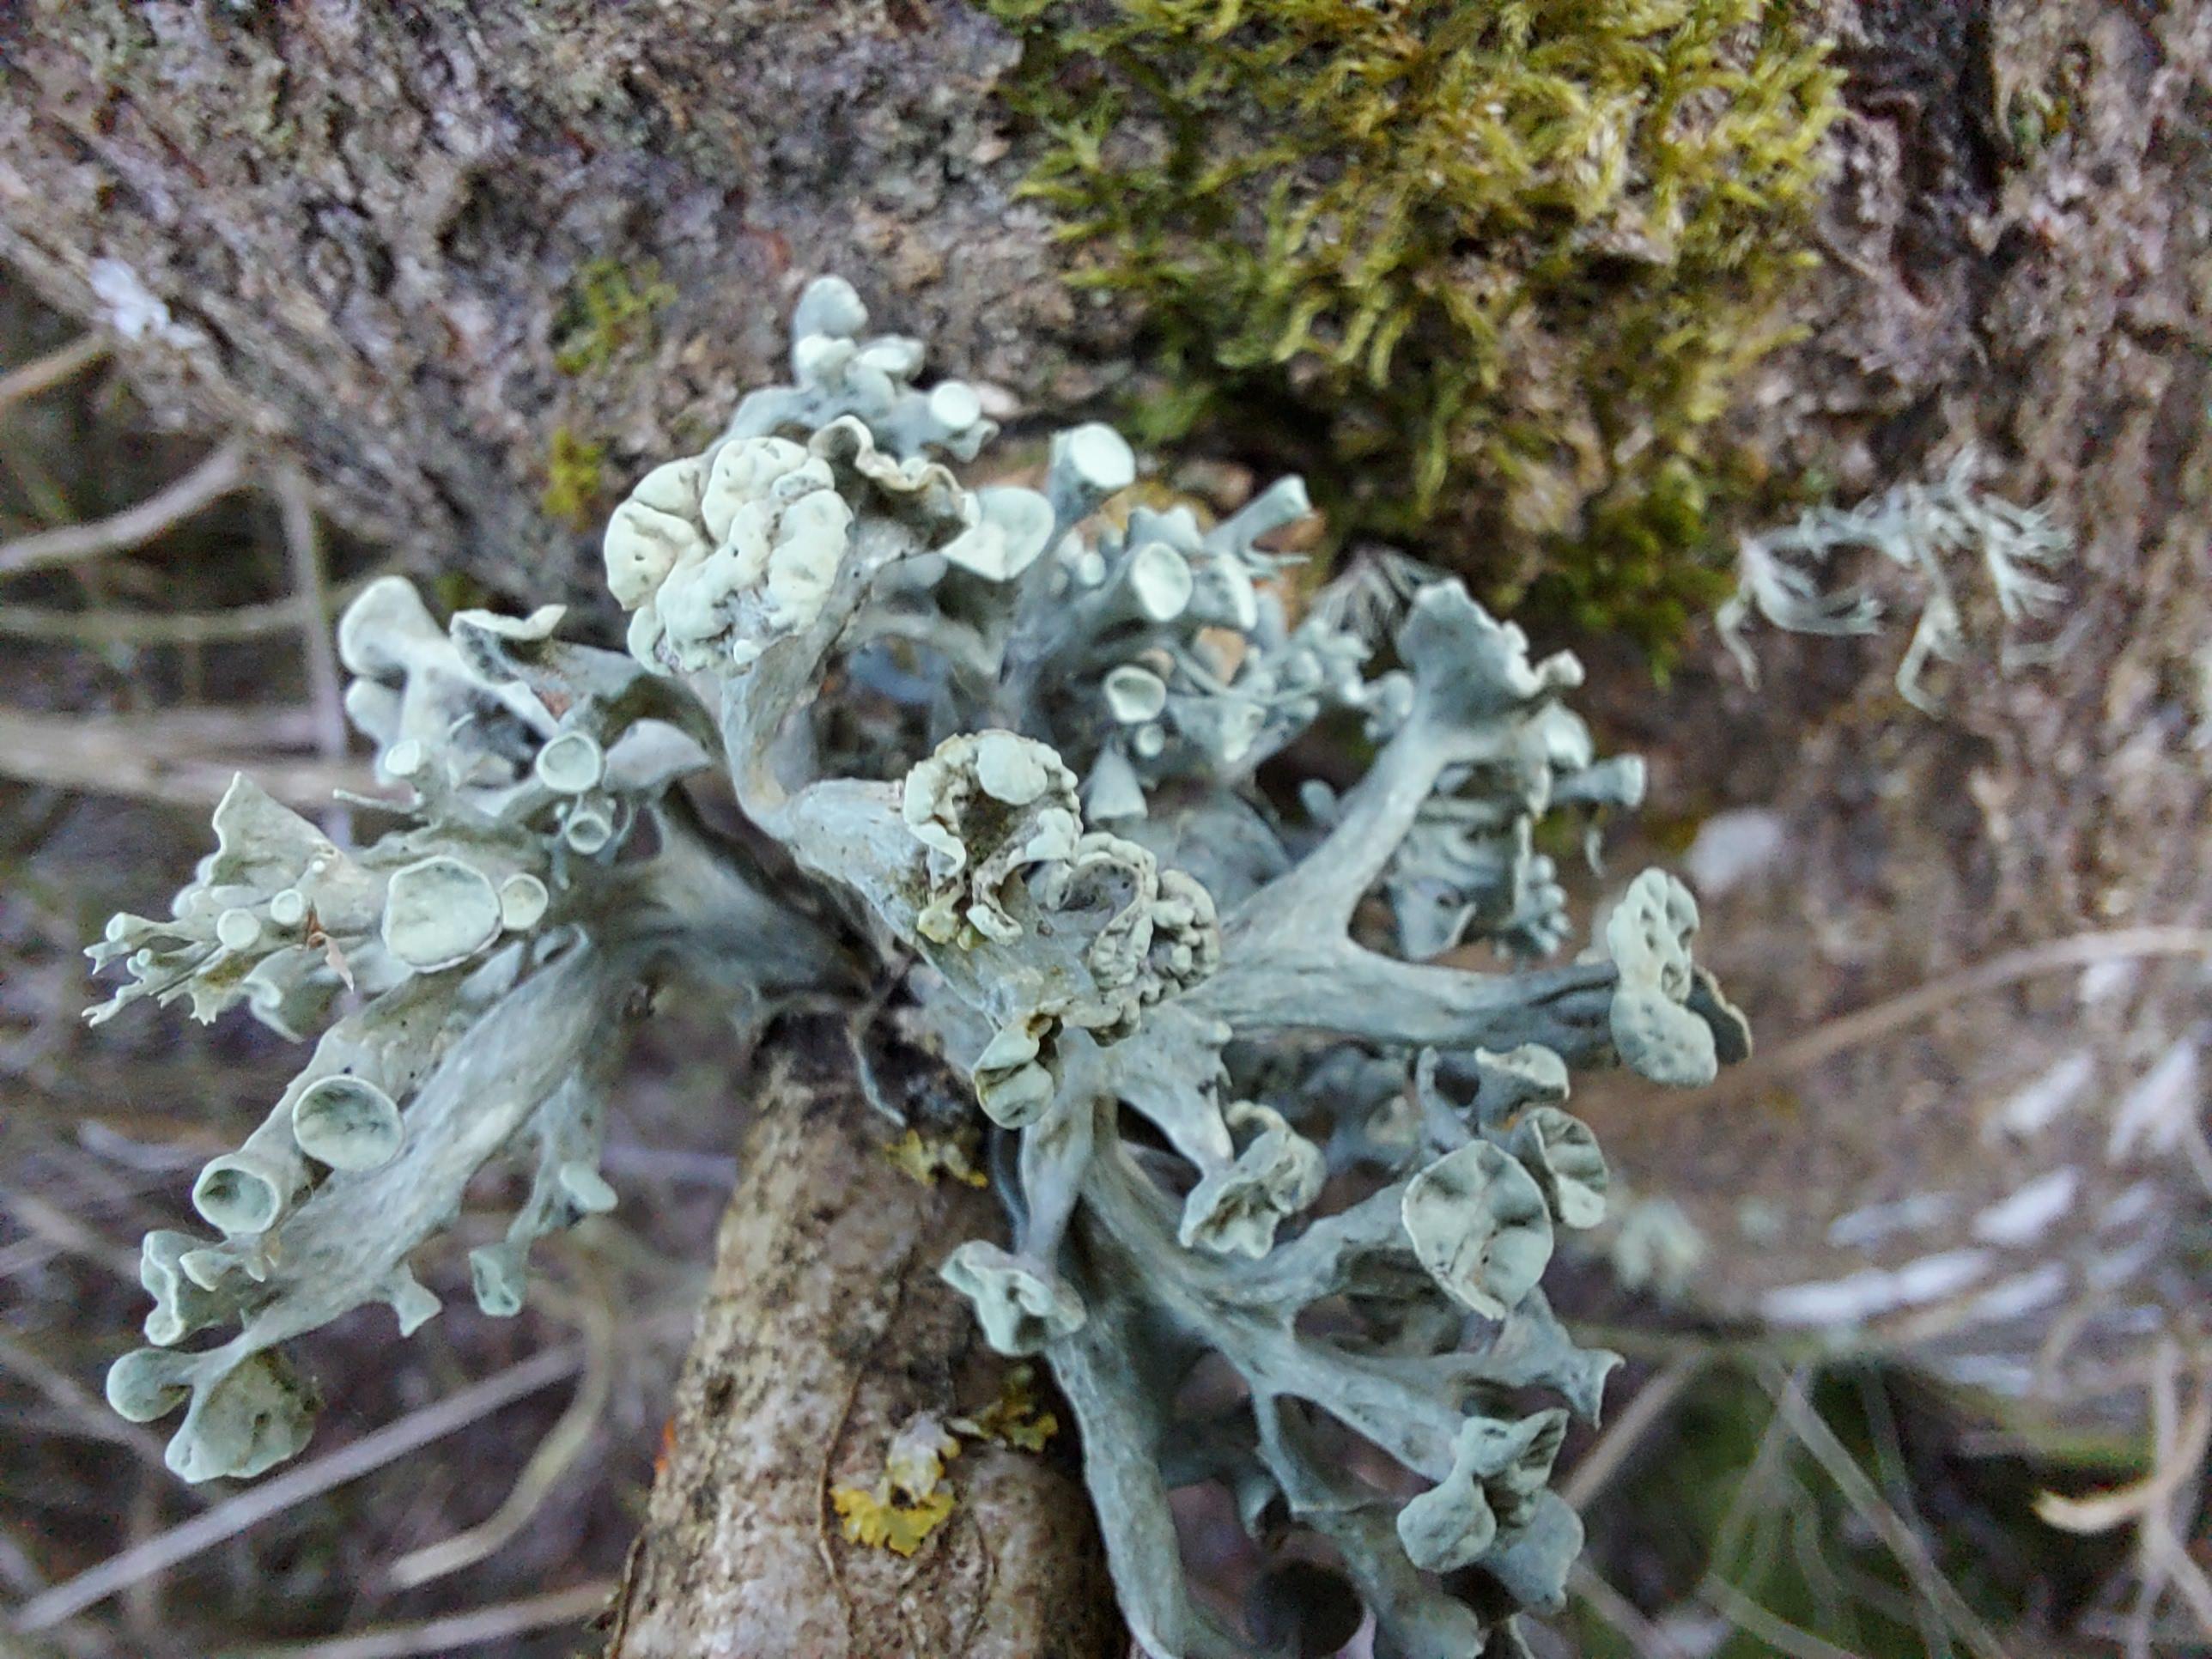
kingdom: Fungi
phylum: Ascomycota
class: Lecanoromycetes
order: Lecanorales
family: Ramalinaceae
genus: Ramalina
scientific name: Ramalina fastigiata
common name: tue-grenlav
